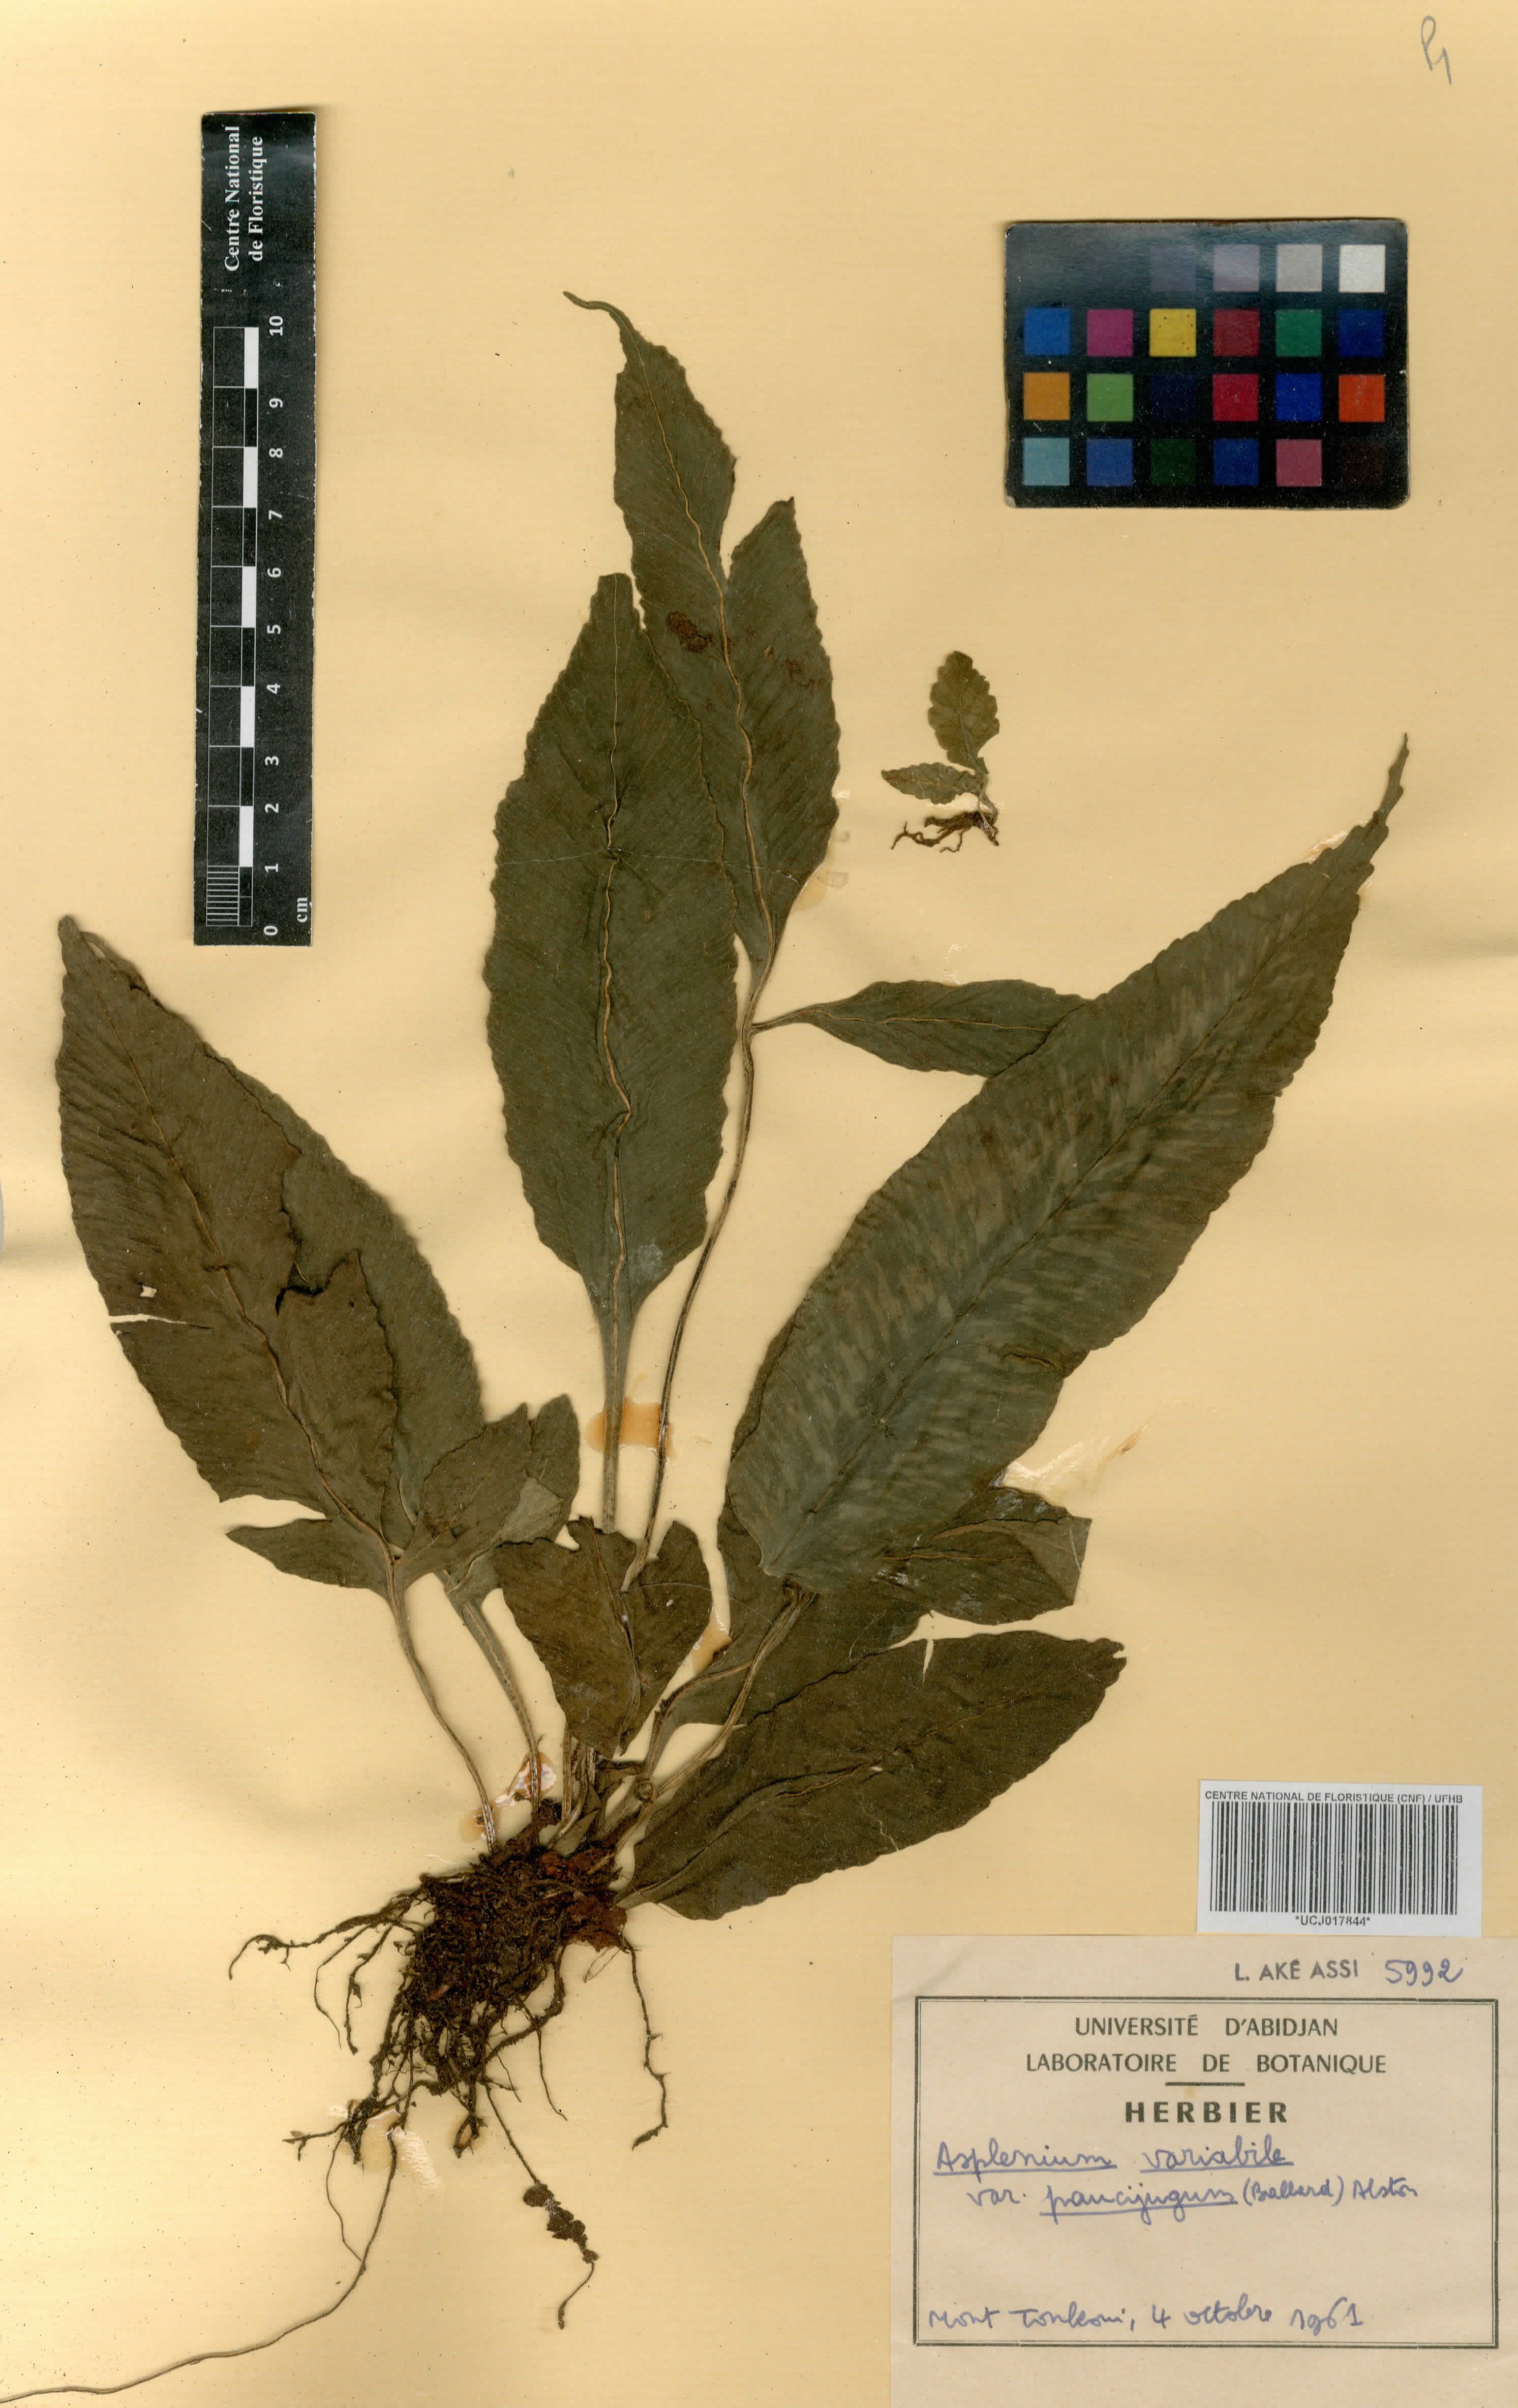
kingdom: Plantae
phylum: Tracheophyta
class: Polypodiopsida
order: Polypodiales
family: Aspleniaceae
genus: Asplenium
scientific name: Asplenium variabile
